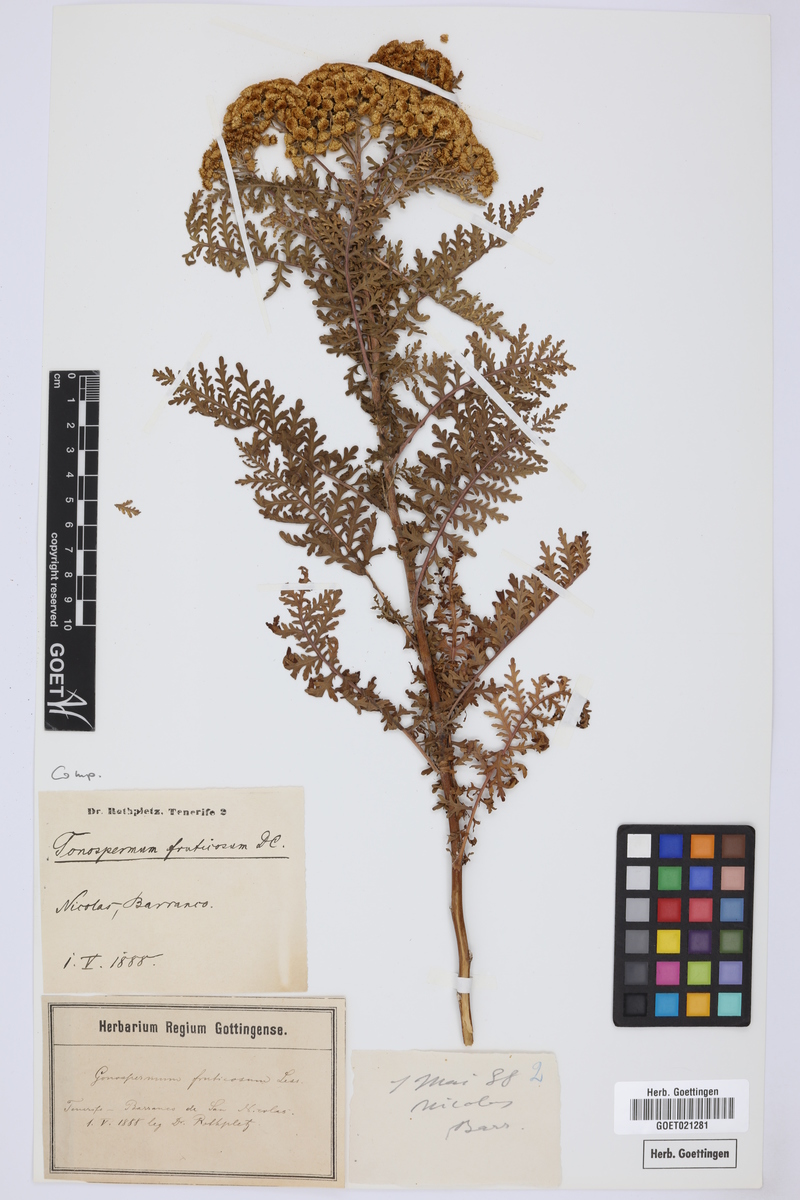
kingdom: Plantae
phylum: Tracheophyta
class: Magnoliopsida
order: Asterales
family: Asteraceae
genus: Gonospermum
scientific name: Gonospermum fruticosum
